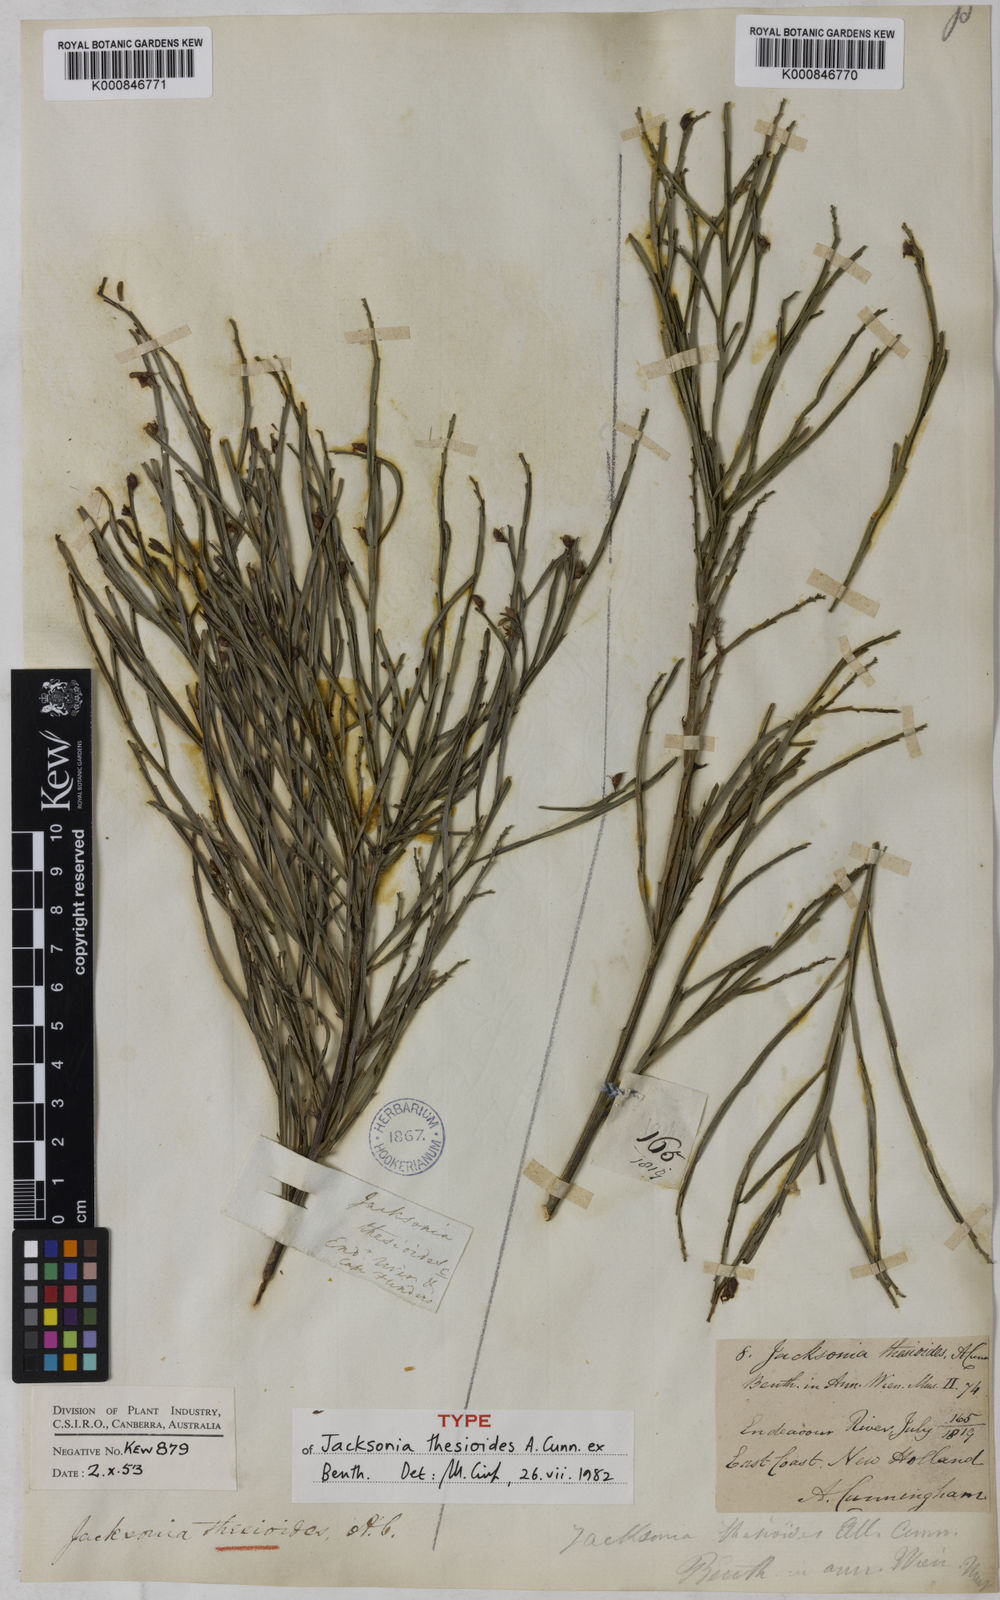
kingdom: Plantae
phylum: Tracheophyta
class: Magnoliopsida
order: Fabales
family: Fabaceae
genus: Jacksonia
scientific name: Jacksonia thesioides
